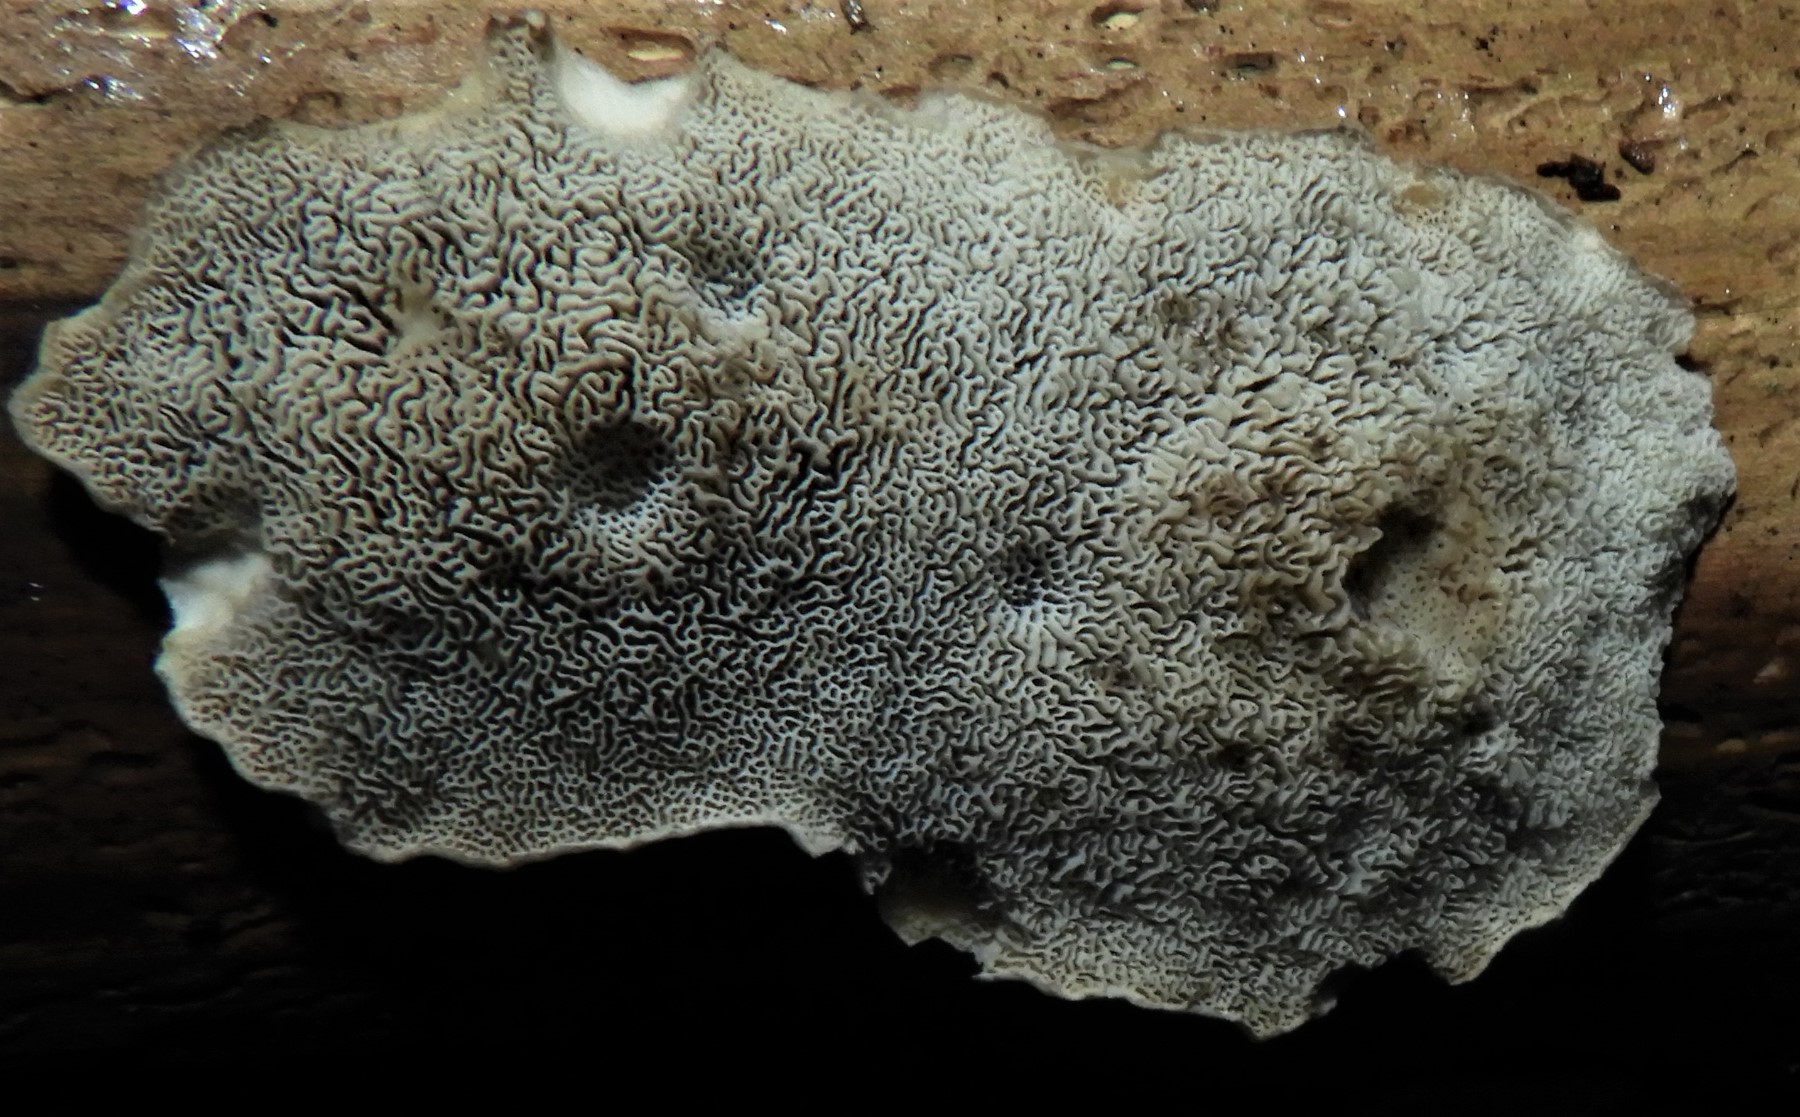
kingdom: Fungi
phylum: Basidiomycota
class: Agaricomycetes
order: Polyporales
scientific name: Polyporales
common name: poresvampordenen
